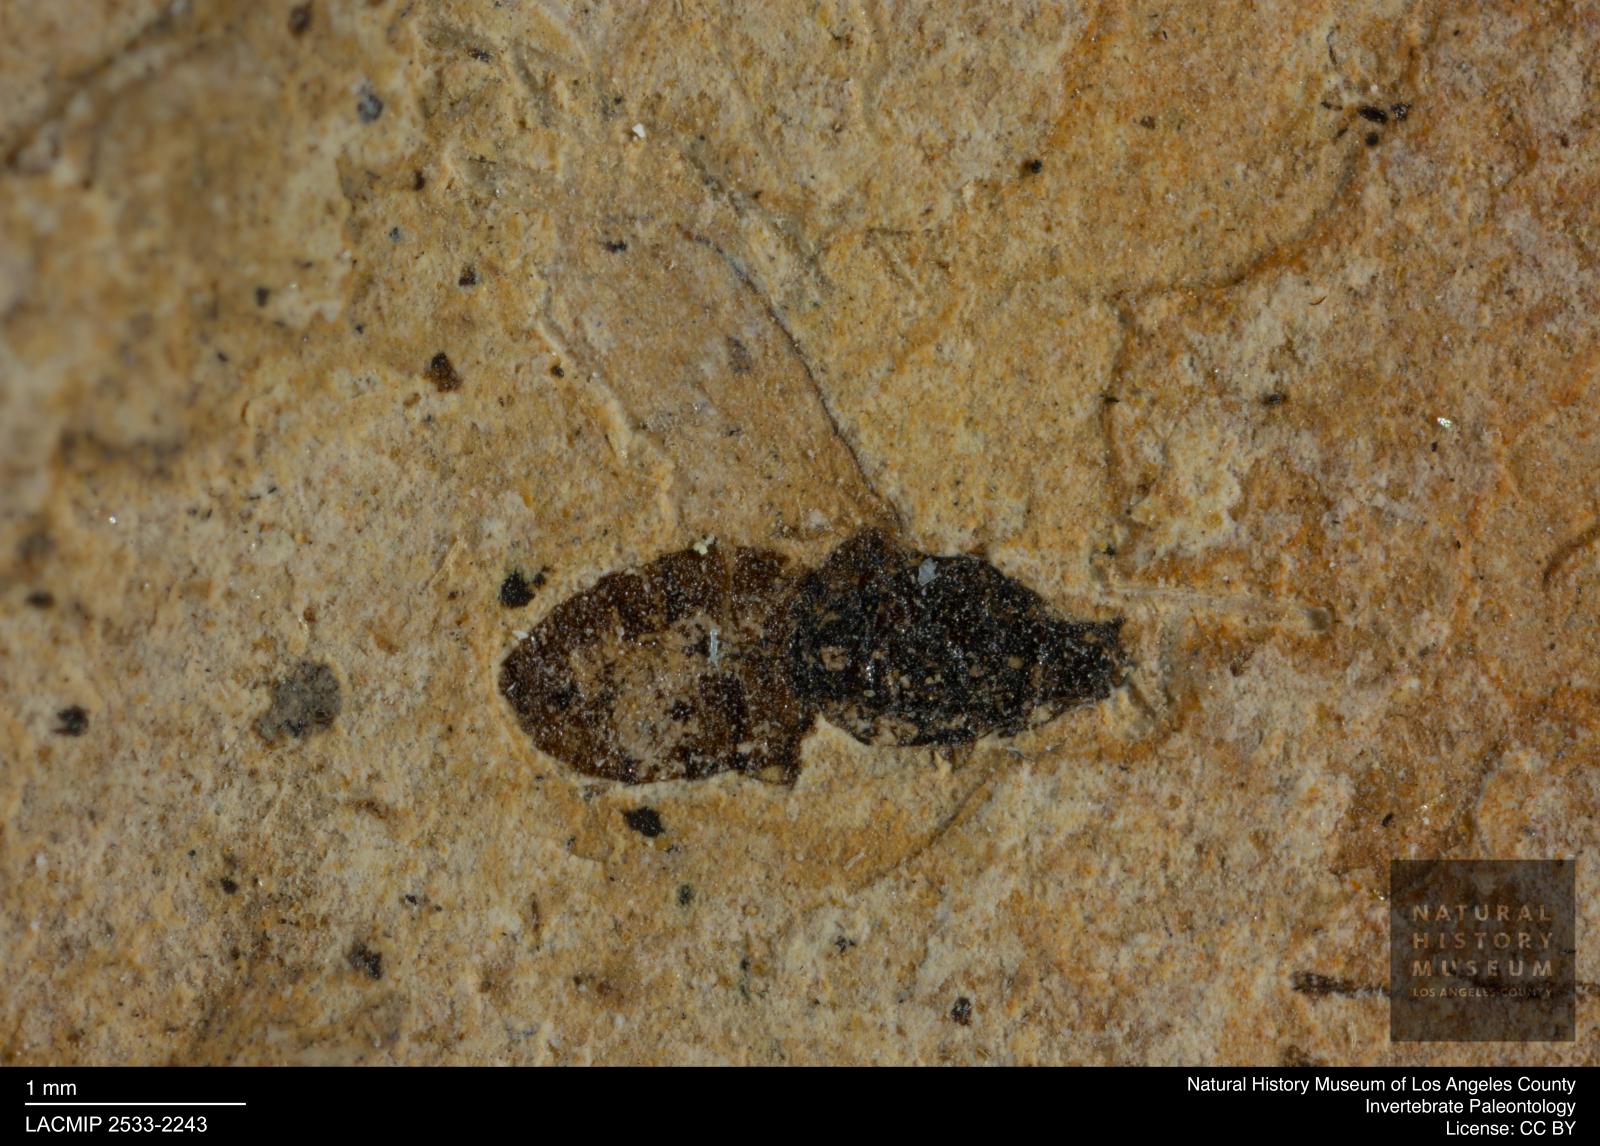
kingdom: Animalia
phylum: Arthropoda
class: Insecta
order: Diptera
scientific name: Diptera
